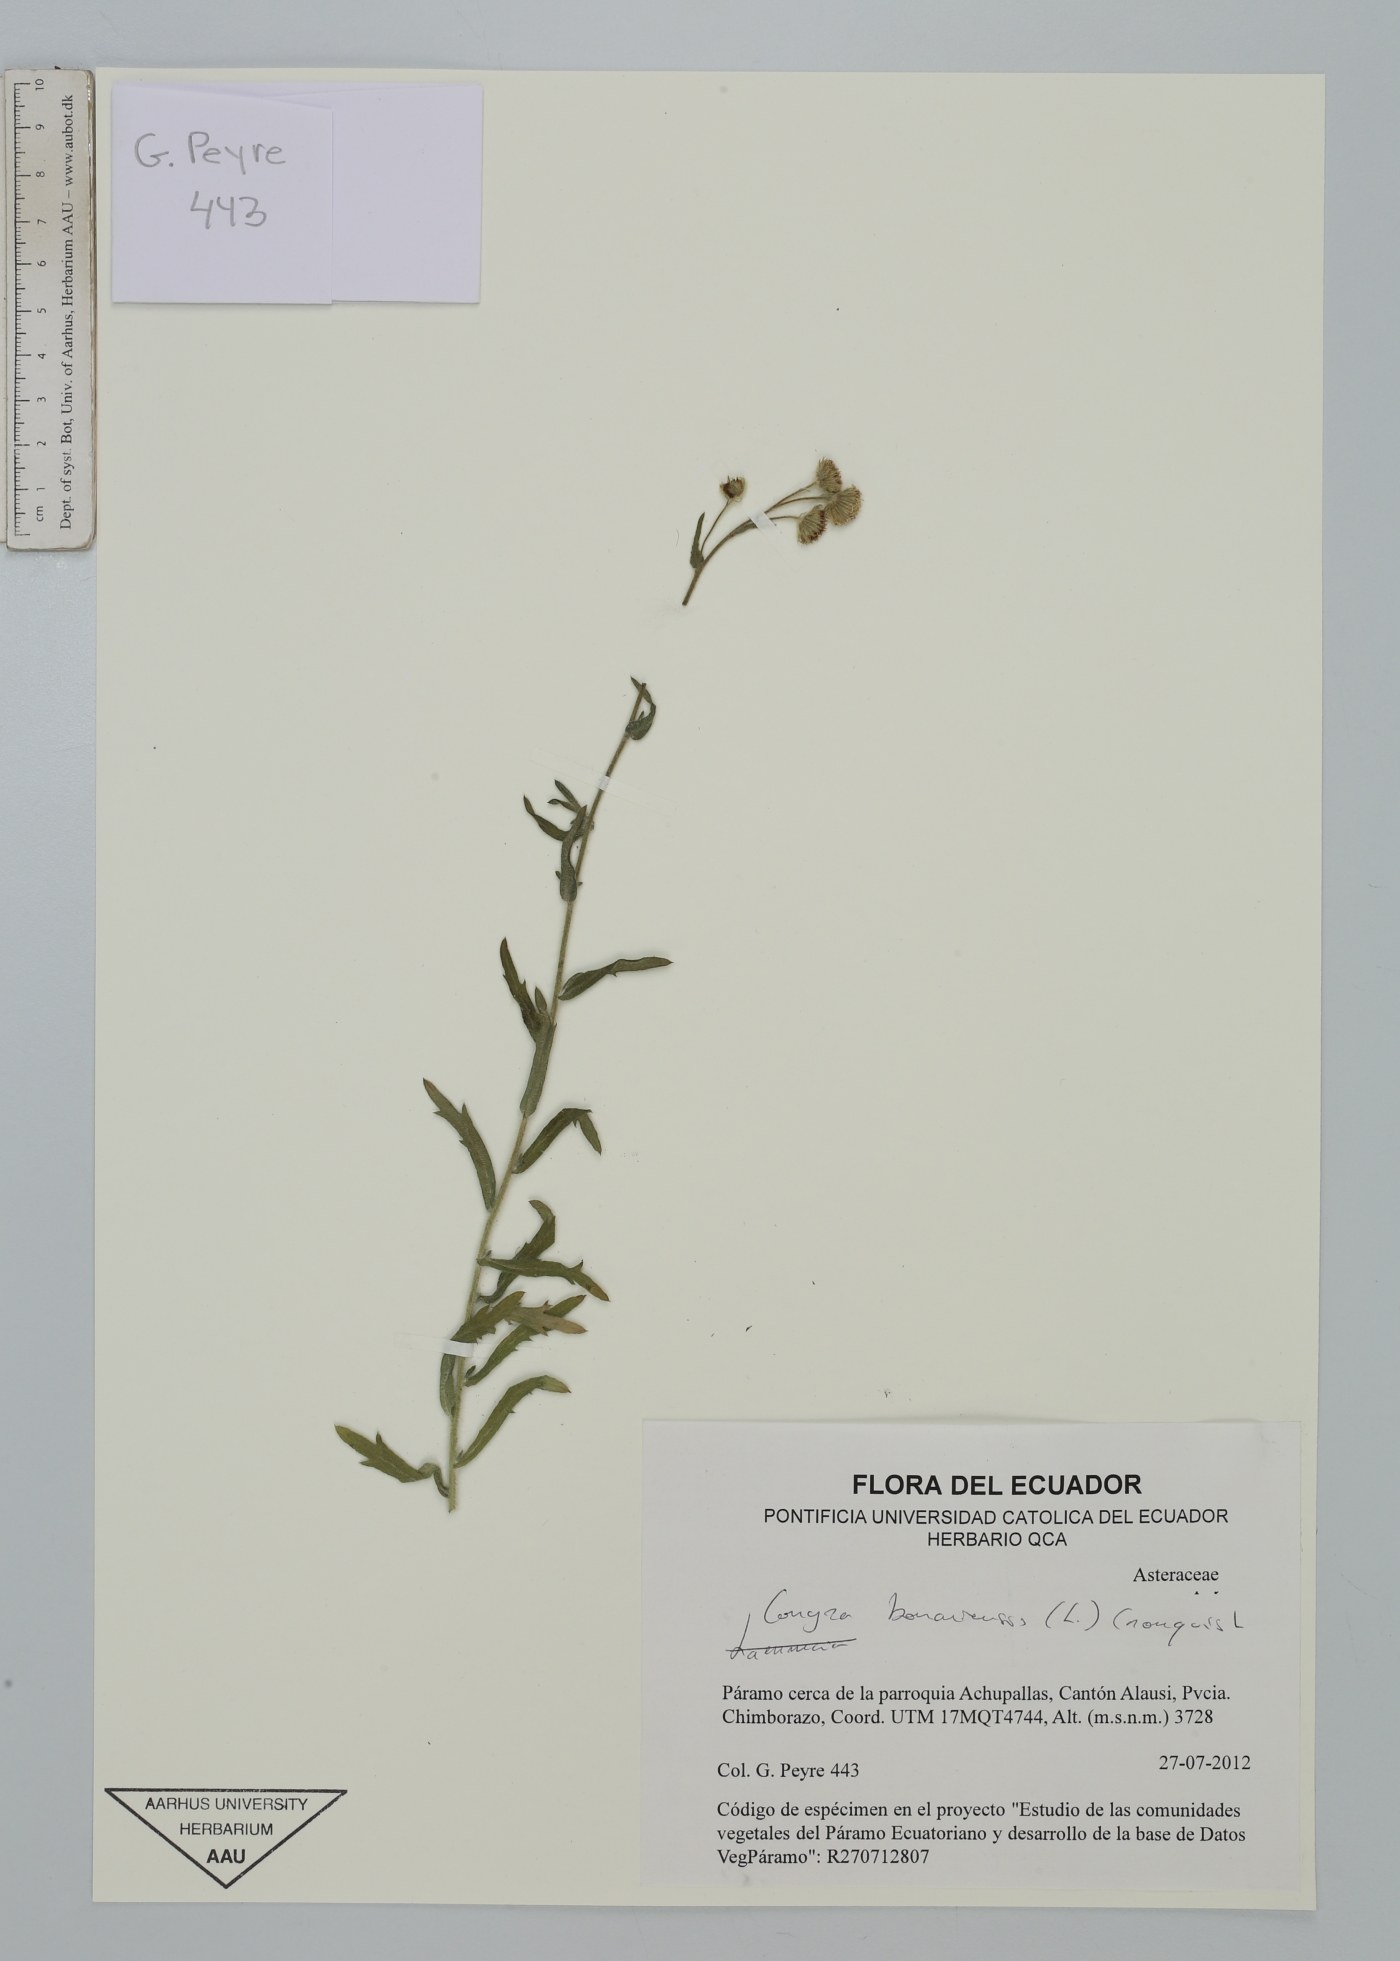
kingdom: Plantae
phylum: Tracheophyta
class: Magnoliopsida
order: Asterales
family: Asteraceae
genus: Erigeron
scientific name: Erigeron bonariensis
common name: Argentine fleabane
